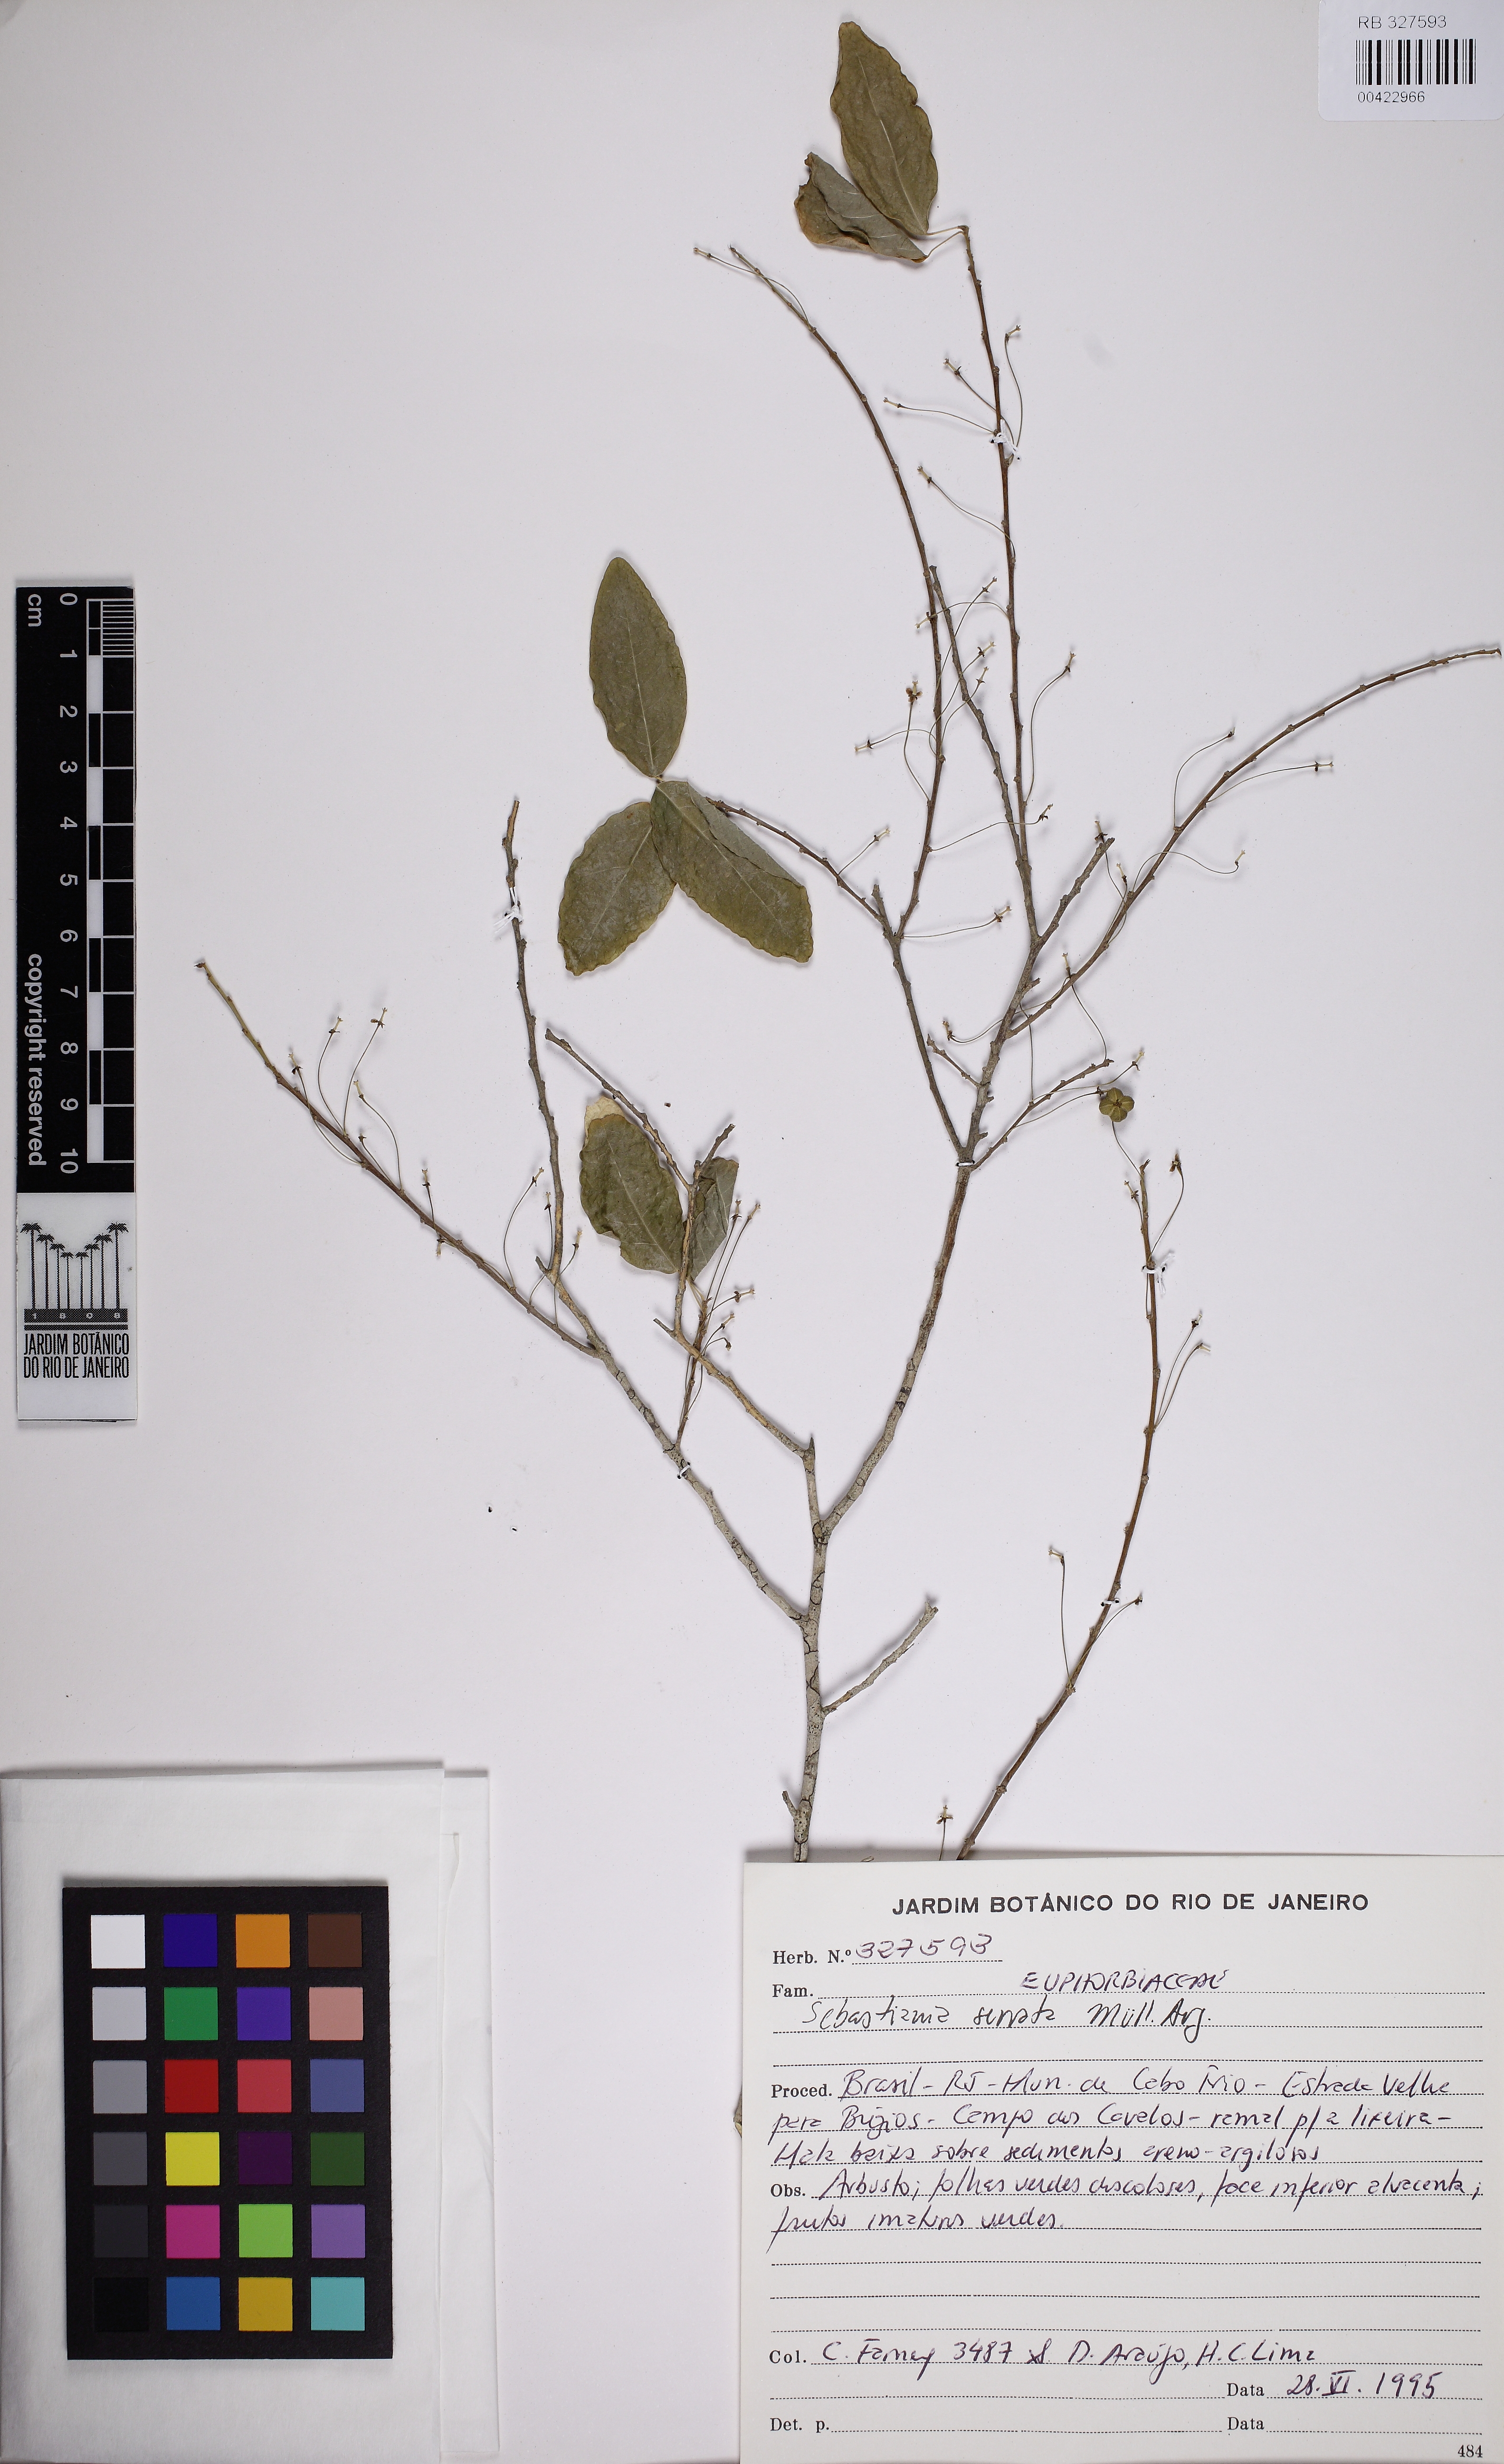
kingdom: Plantae
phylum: Tracheophyta
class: Magnoliopsida
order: Malpighiales
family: Euphorbiaceae
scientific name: Euphorbiaceae
